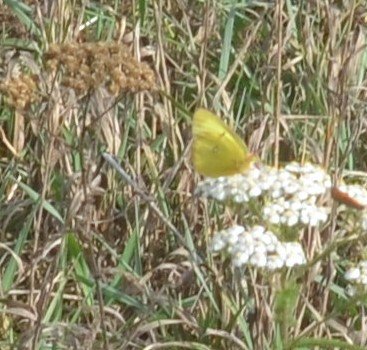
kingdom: Animalia
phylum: Arthropoda
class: Insecta
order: Lepidoptera
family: Pieridae
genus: Colias
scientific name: Colias philodice
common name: Clouded Sulphur
